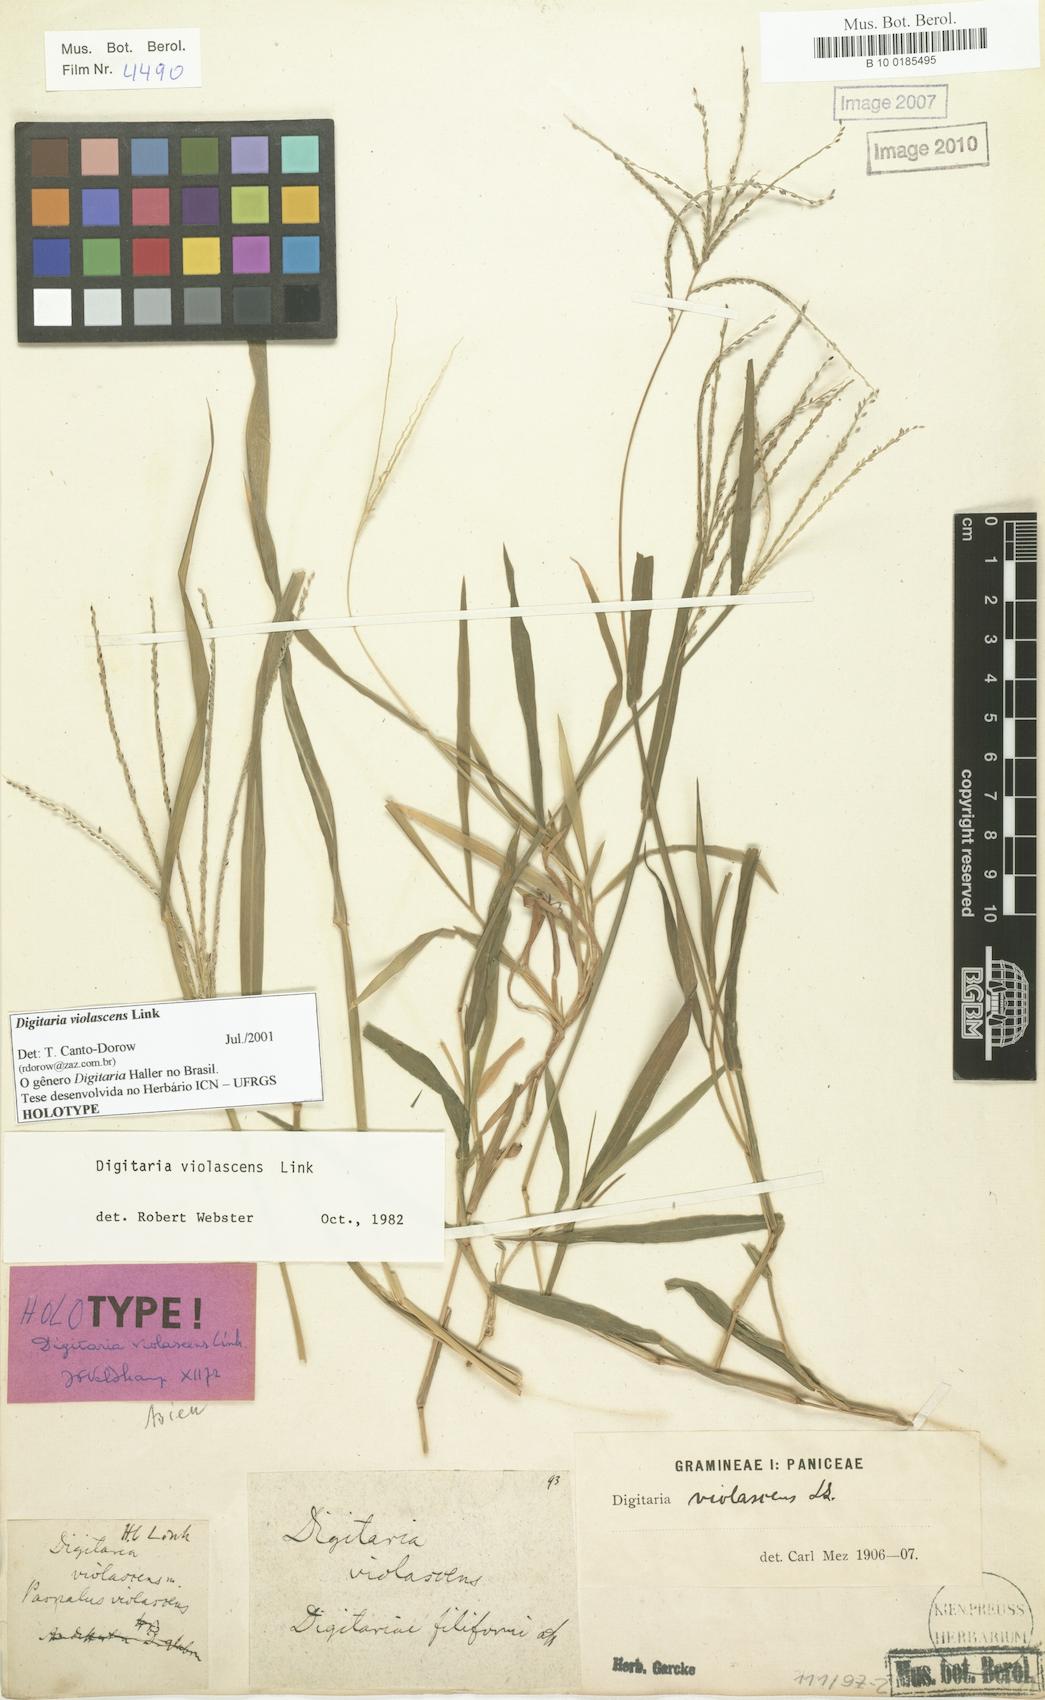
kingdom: Plantae
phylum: Tracheophyta
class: Liliopsida
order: Poales
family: Poaceae
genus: Digitaria
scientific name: Digitaria violascens
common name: Violet crabgrass
